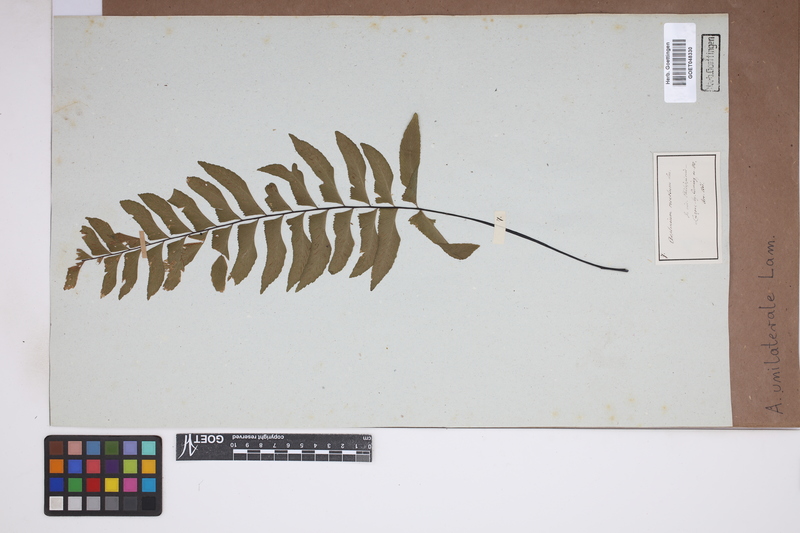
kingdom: Plantae
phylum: Tracheophyta
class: Polypodiopsida
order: Polypodiales
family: Aspleniaceae
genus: Hymenasplenium
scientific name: Hymenasplenium unilaterale
